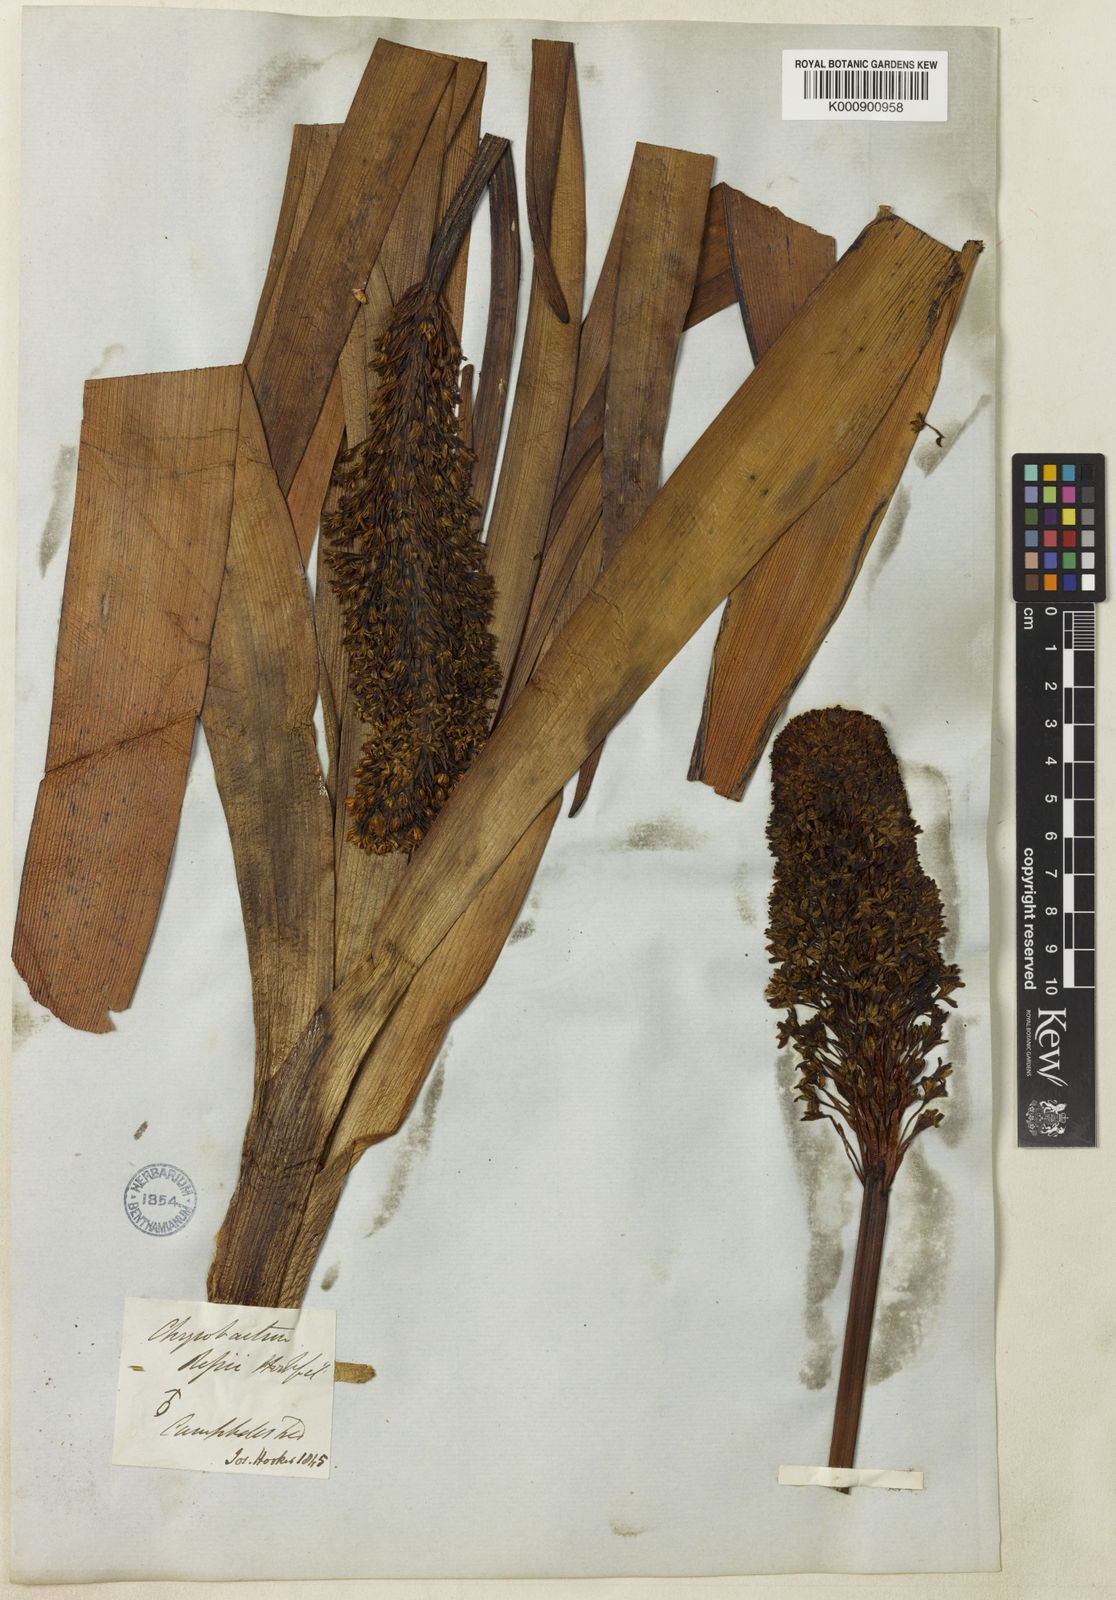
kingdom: Plantae
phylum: Tracheophyta
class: Liliopsida
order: Asparagales
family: Asphodelaceae
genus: Bulbinella
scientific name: Bulbinella
